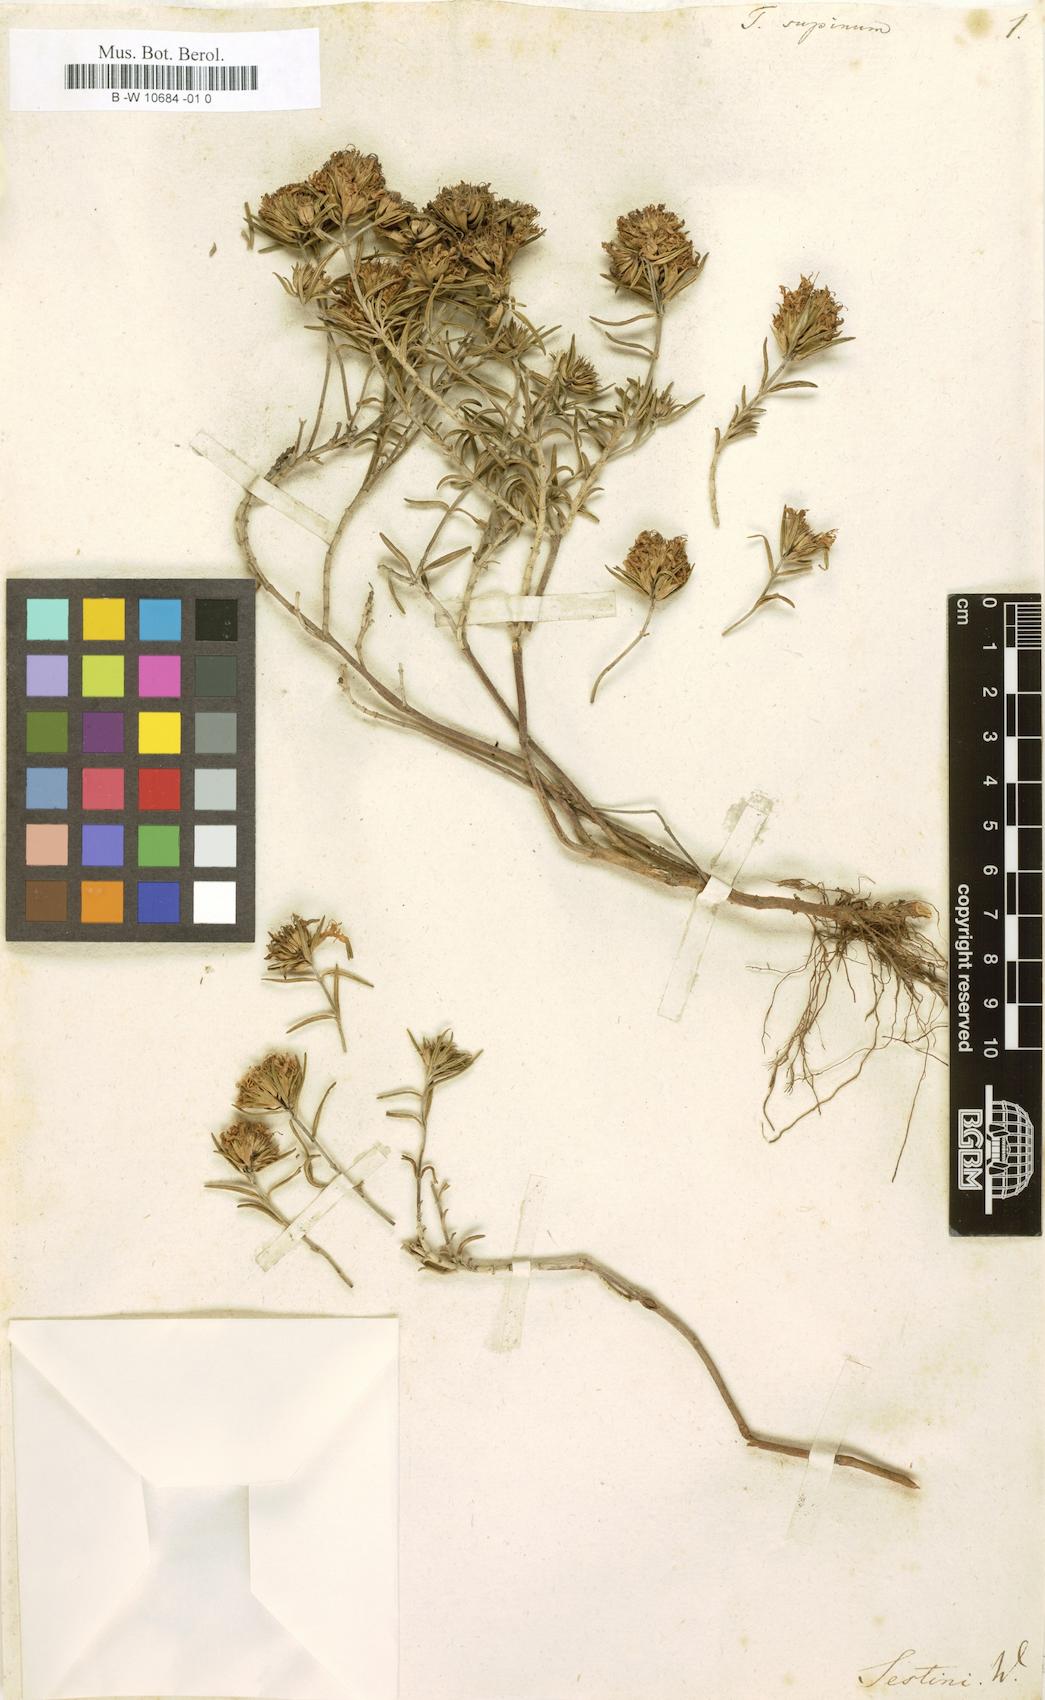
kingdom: Plantae
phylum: Tracheophyta
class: Magnoliopsida
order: Lamiales
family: Lamiaceae
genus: Teucrium
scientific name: Teucrium montanum
